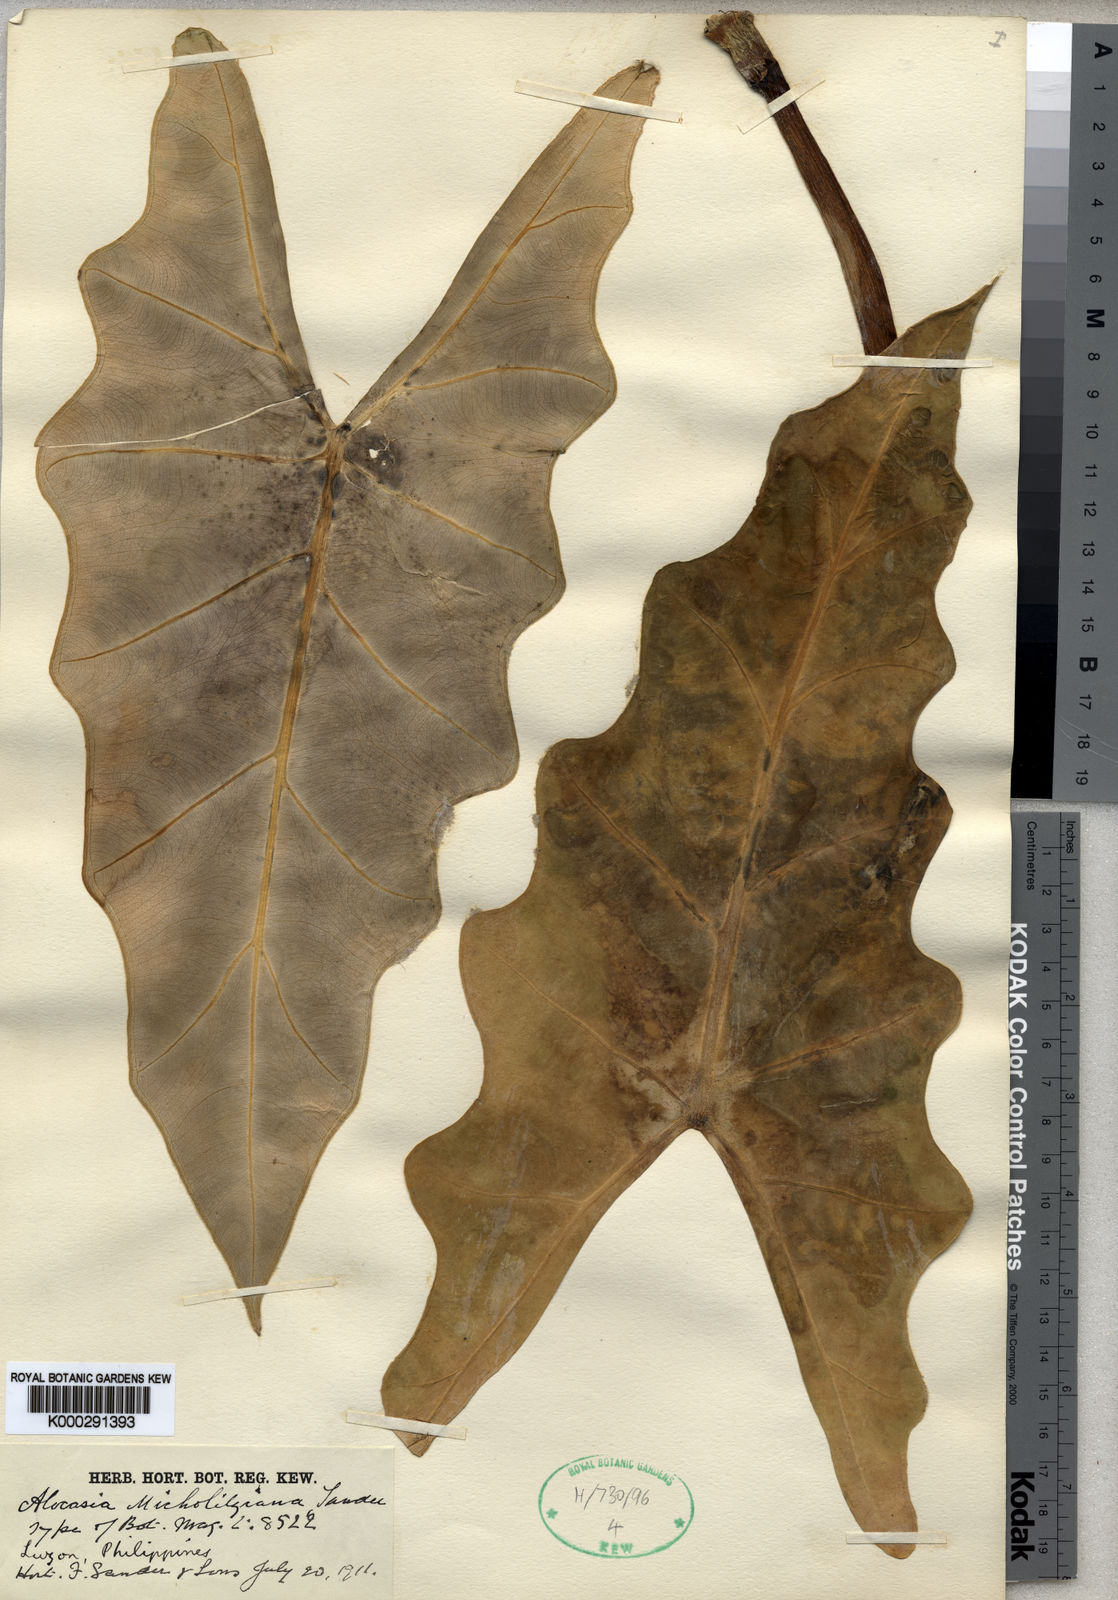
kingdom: Plantae
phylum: Tracheophyta
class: Liliopsida
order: Alismatales
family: Araceae
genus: Alocasia
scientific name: Alocasia micholitziana
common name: Green-velvet alocasia
